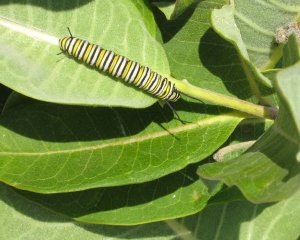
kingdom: Animalia
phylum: Arthropoda
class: Insecta
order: Lepidoptera
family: Nymphalidae
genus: Danaus
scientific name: Danaus plexippus
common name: Monarch
